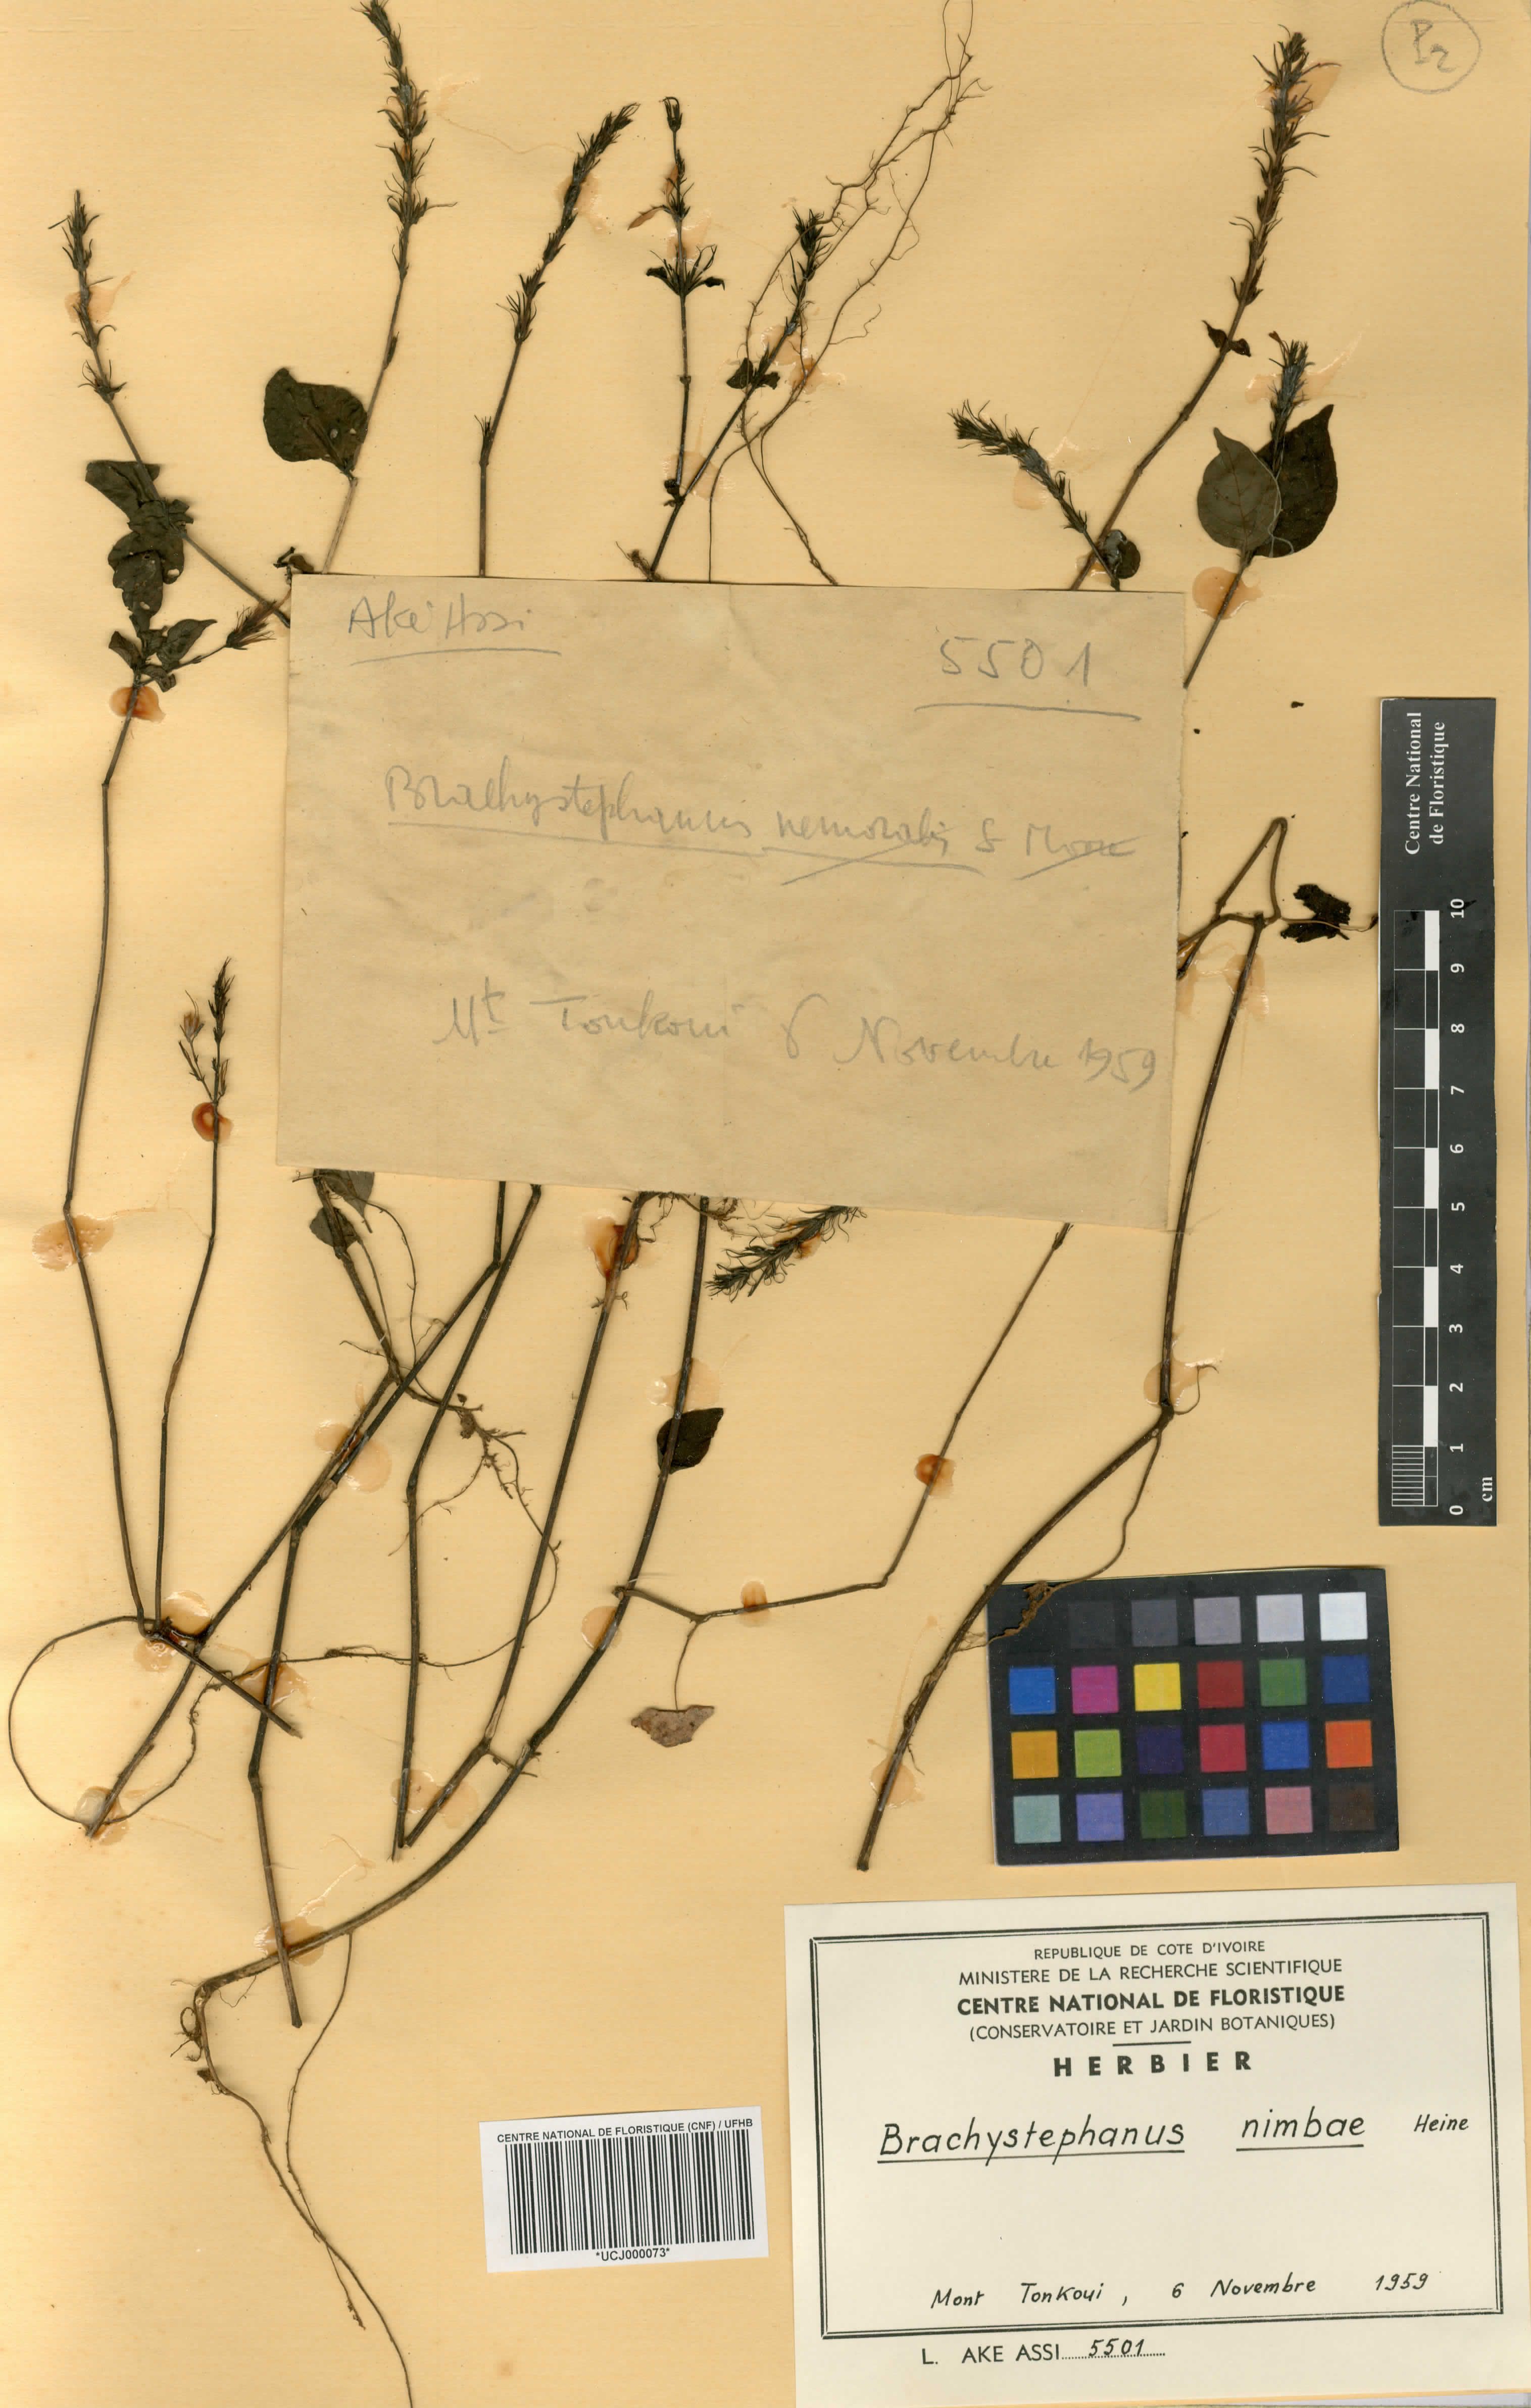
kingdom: Plantae
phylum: Tracheophyta
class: Magnoliopsida
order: Lamiales
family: Acanthaceae
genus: Brachystephanus
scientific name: Brachystephanus jaundensis
